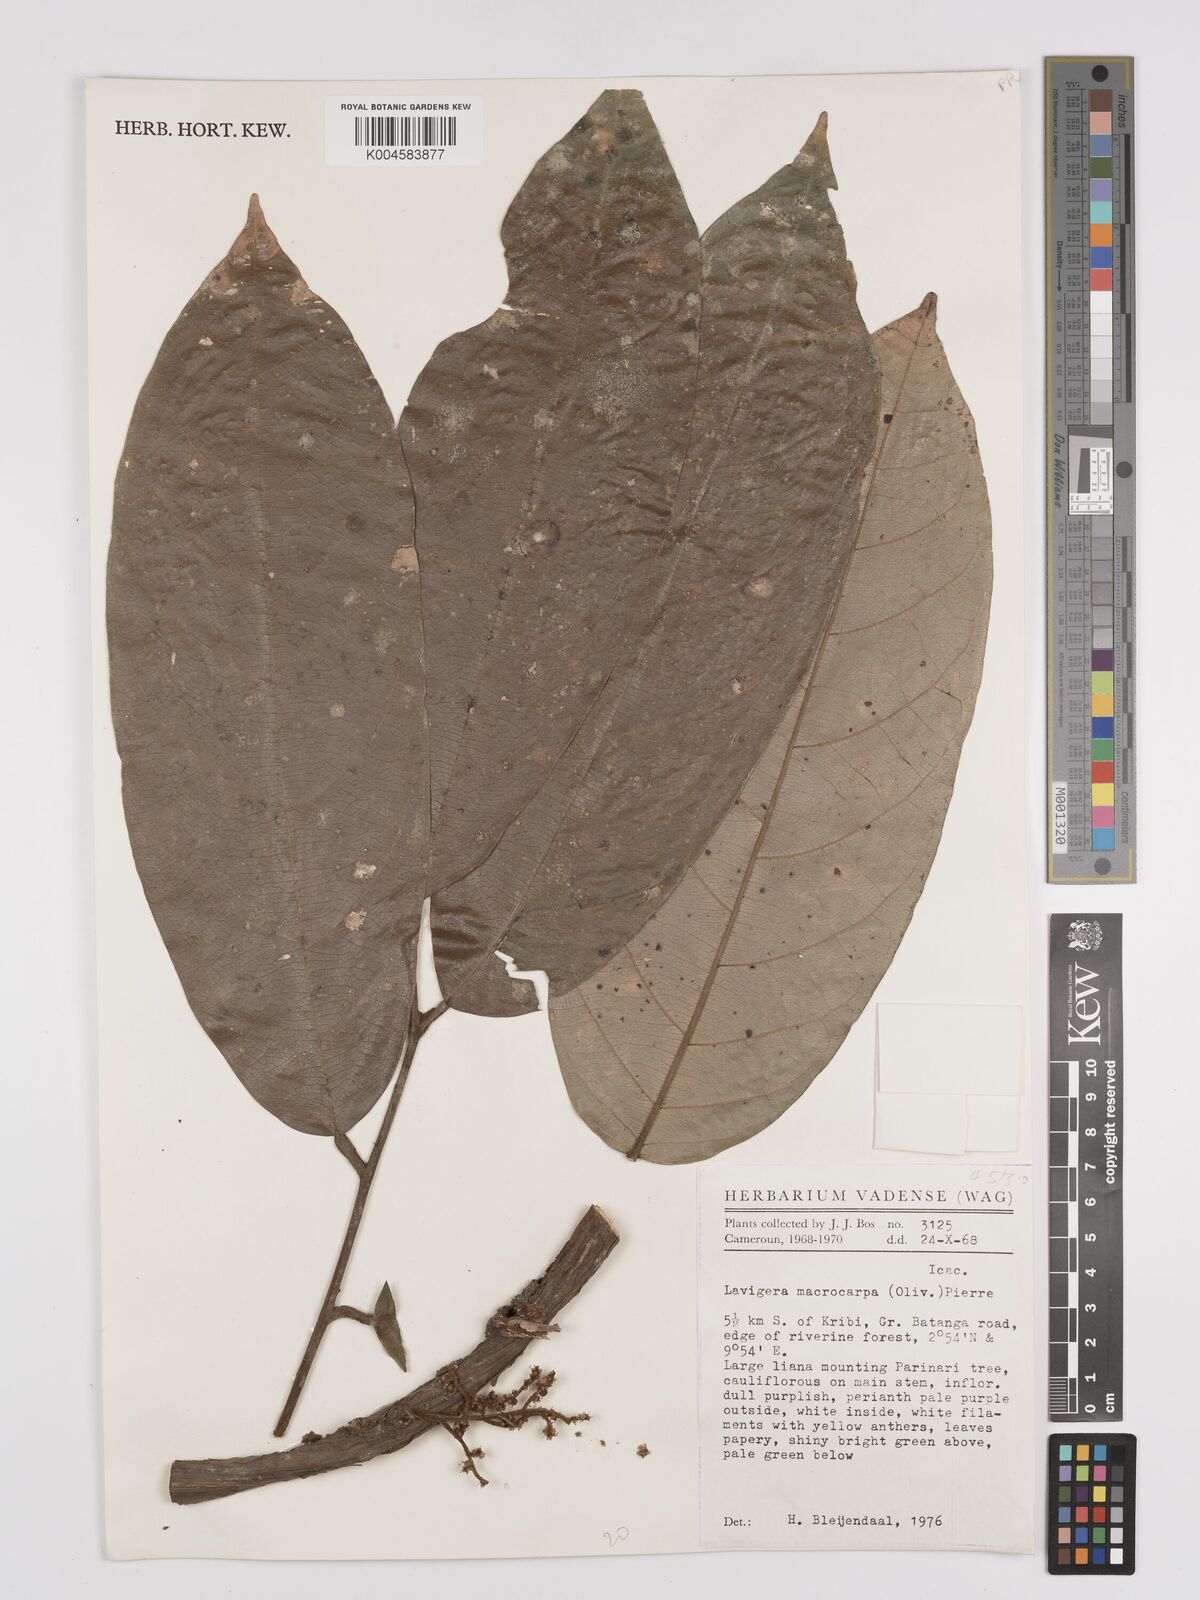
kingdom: Plantae
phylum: Tracheophyta
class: Magnoliopsida
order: Icacinales
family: Icacinaceae
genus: Lavigeria
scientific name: Lavigeria macrocarpa
